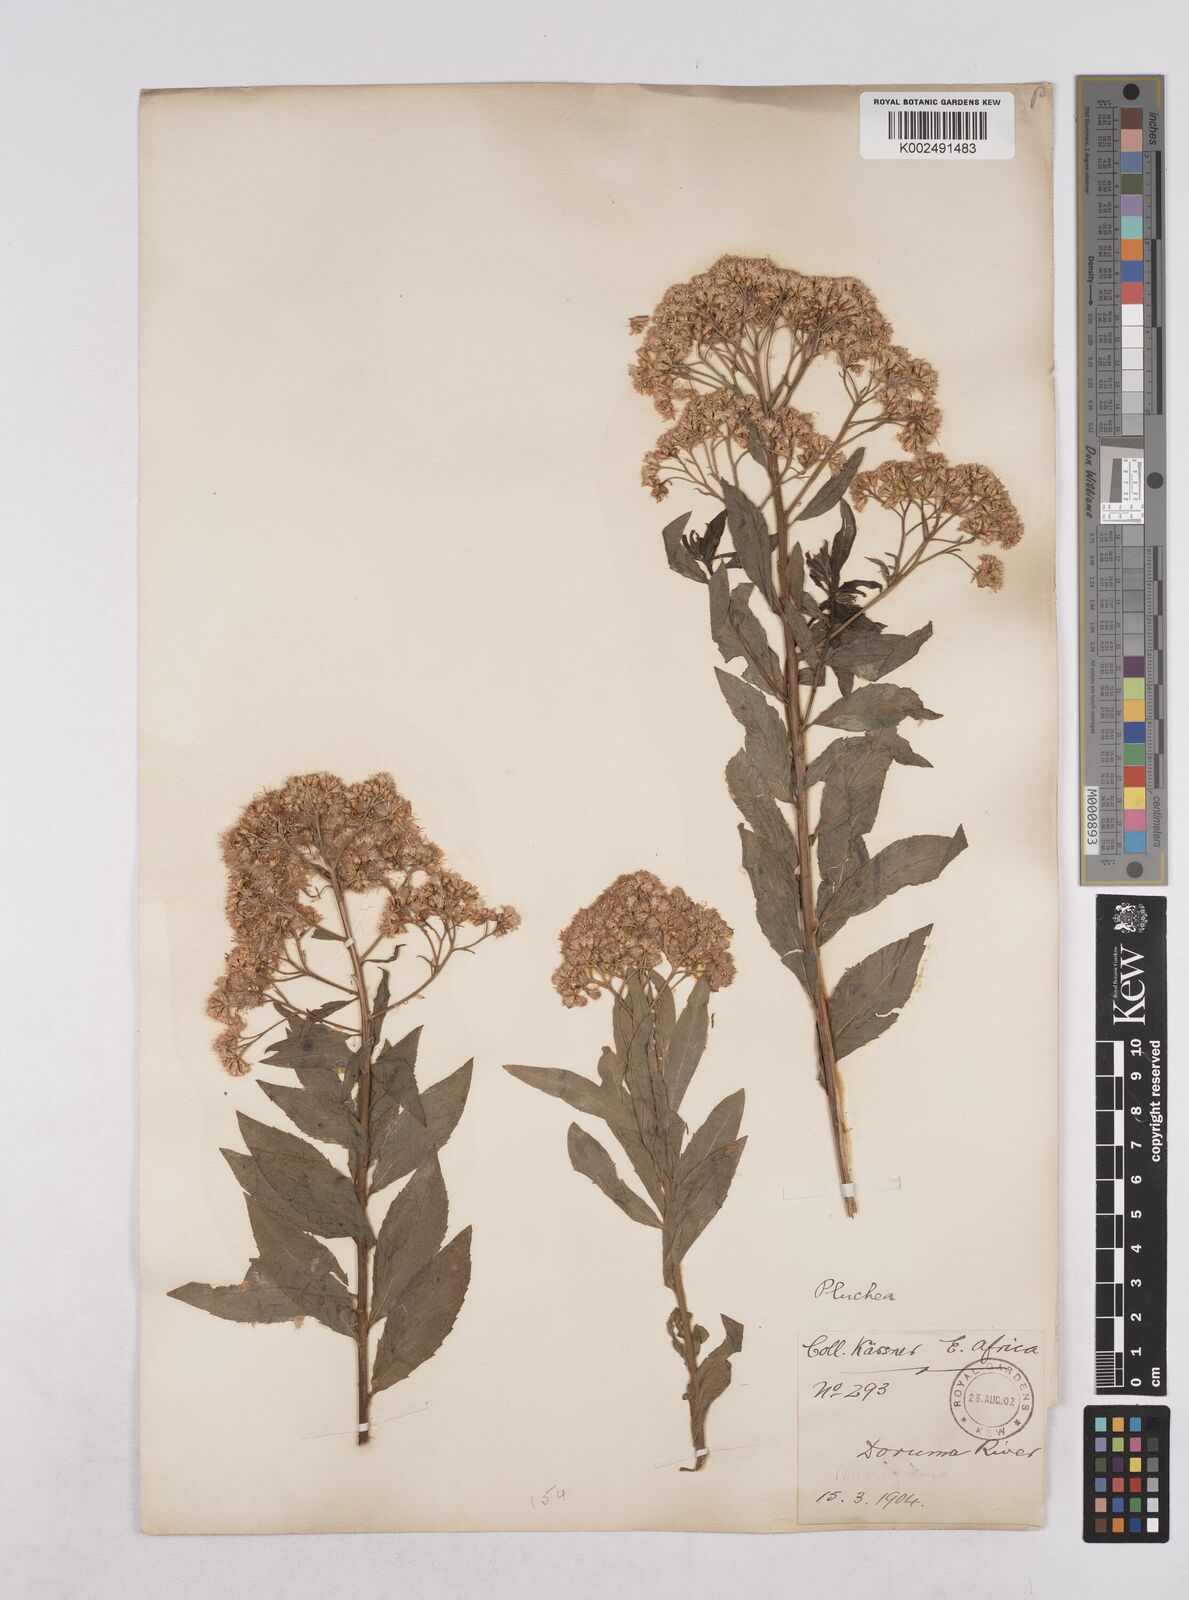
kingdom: Plantae
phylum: Tracheophyta
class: Magnoliopsida
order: Asterales
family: Asteraceae
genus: Pluchea
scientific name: Pluchea dioscoridis
